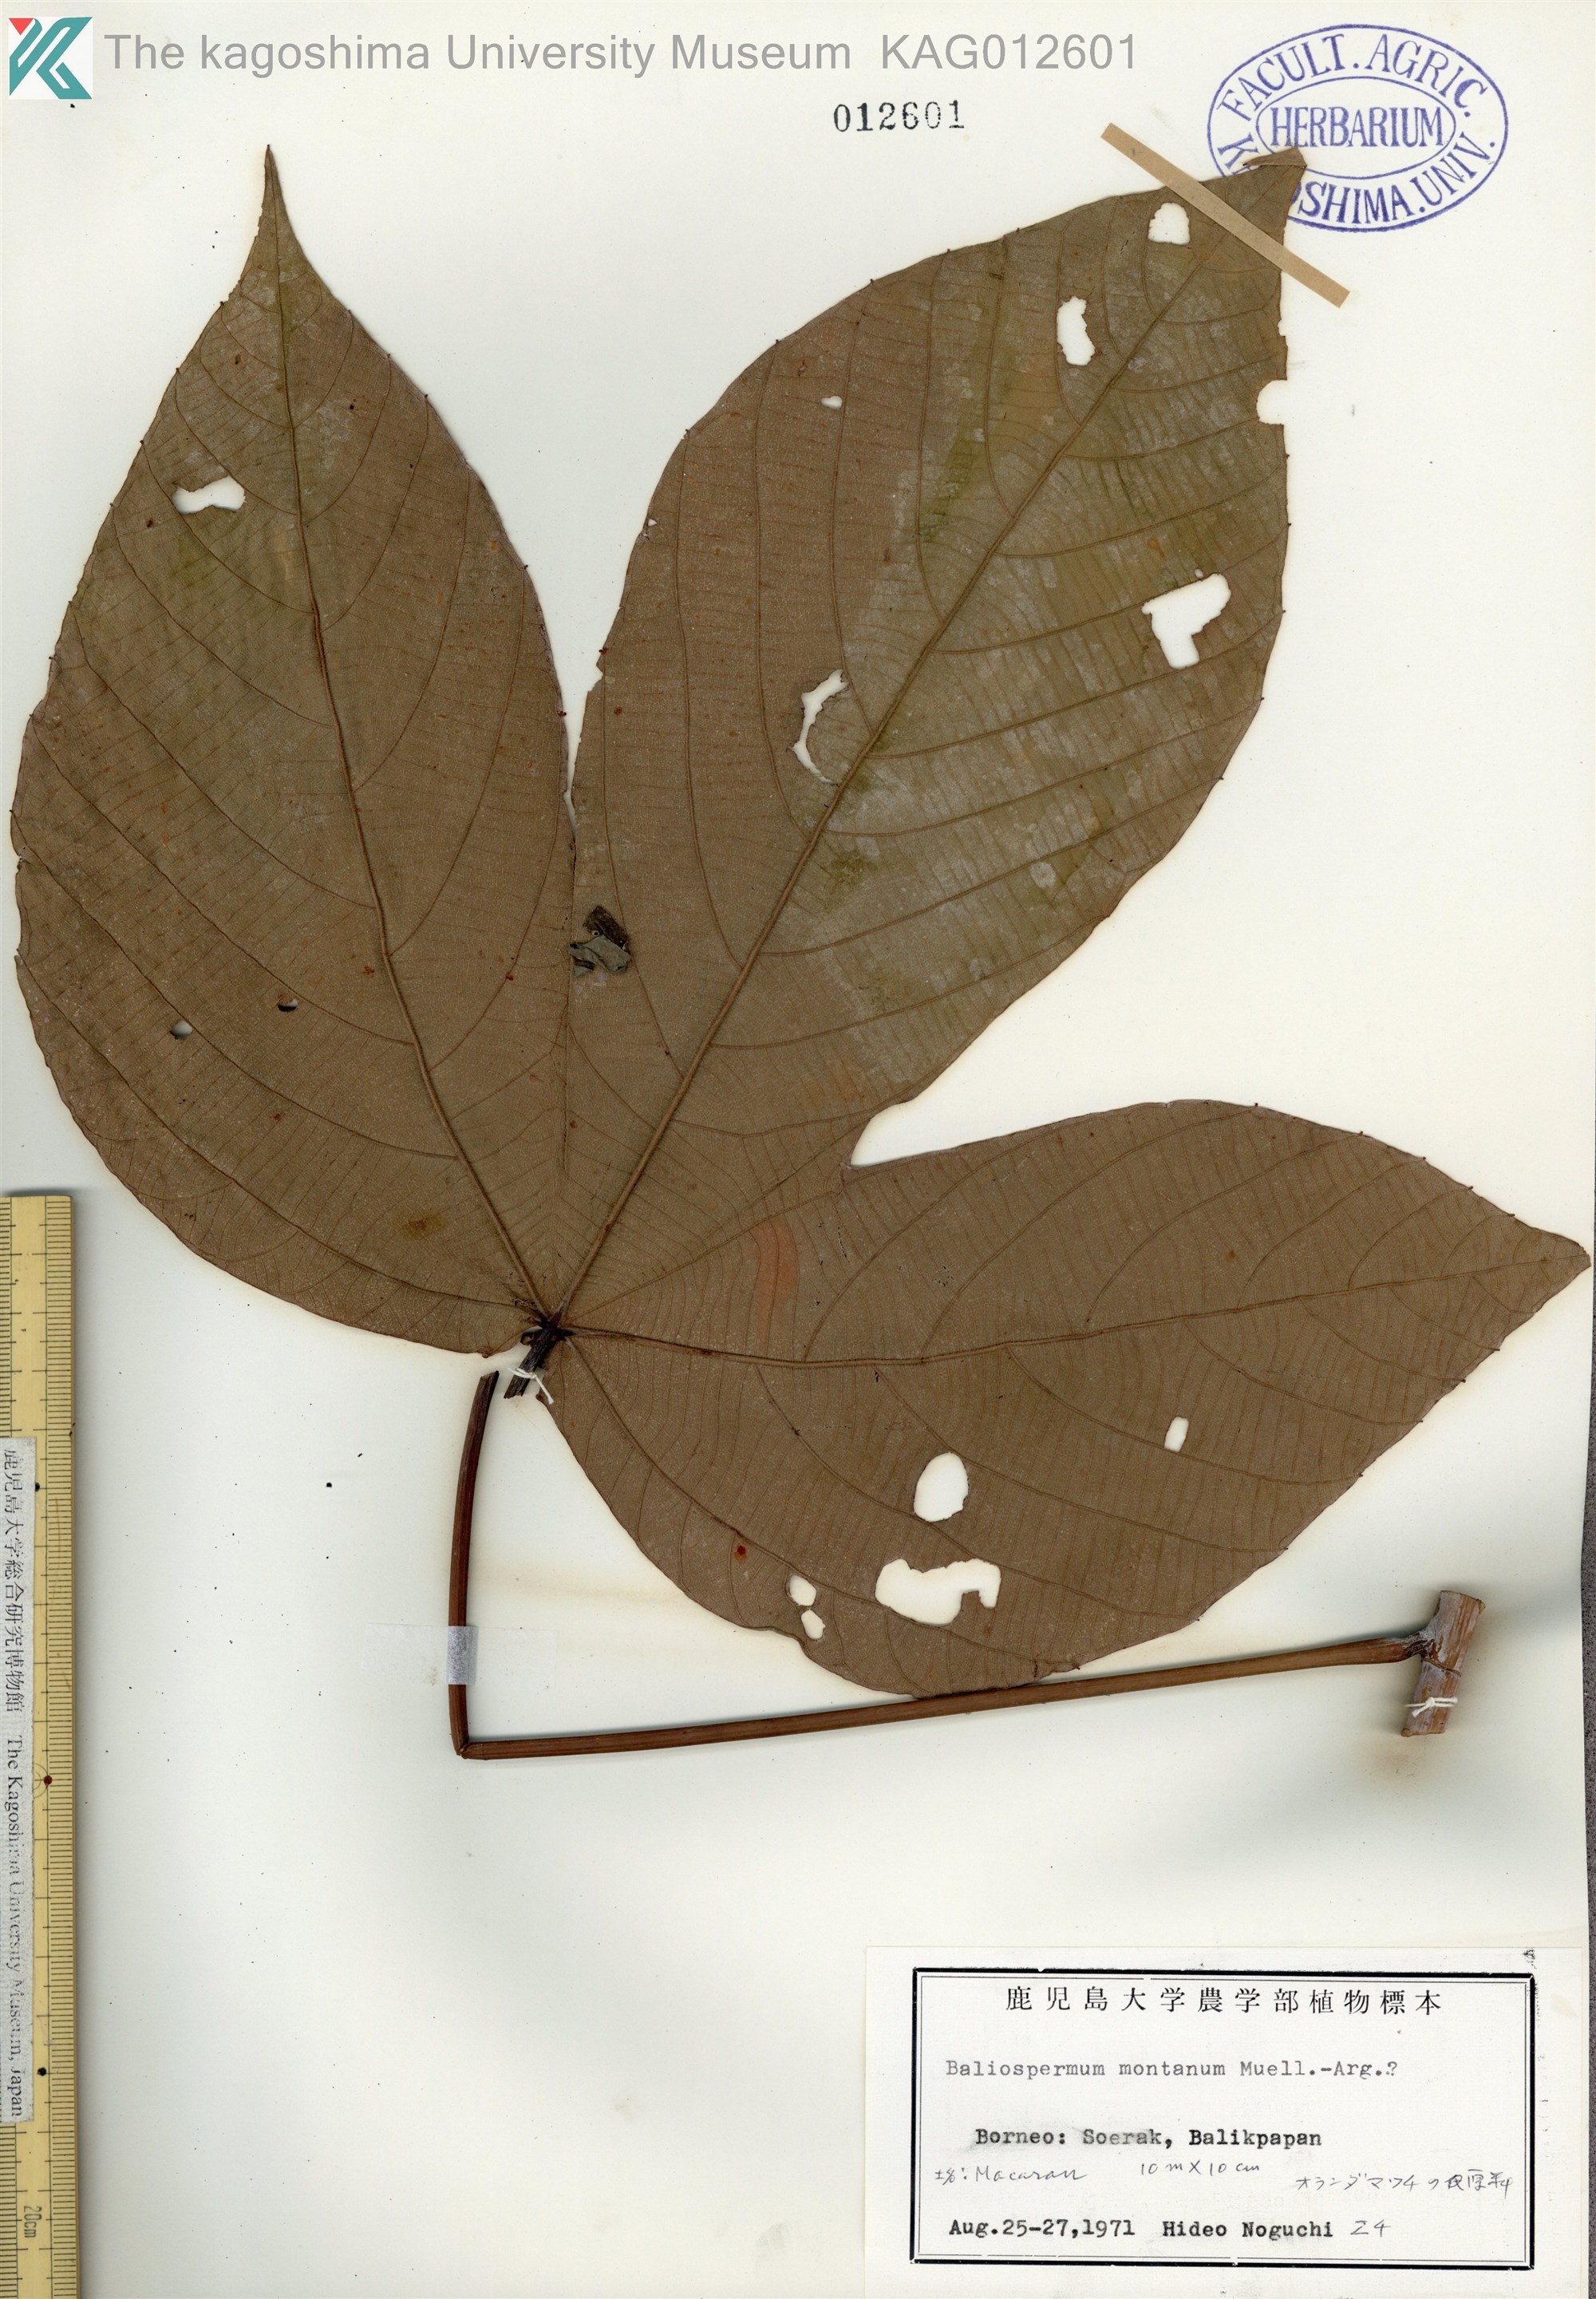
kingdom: Plantae
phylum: Tracheophyta
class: Magnoliopsida
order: Malpighiales
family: Euphorbiaceae
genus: Macaranga
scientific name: Macaranga bancana
